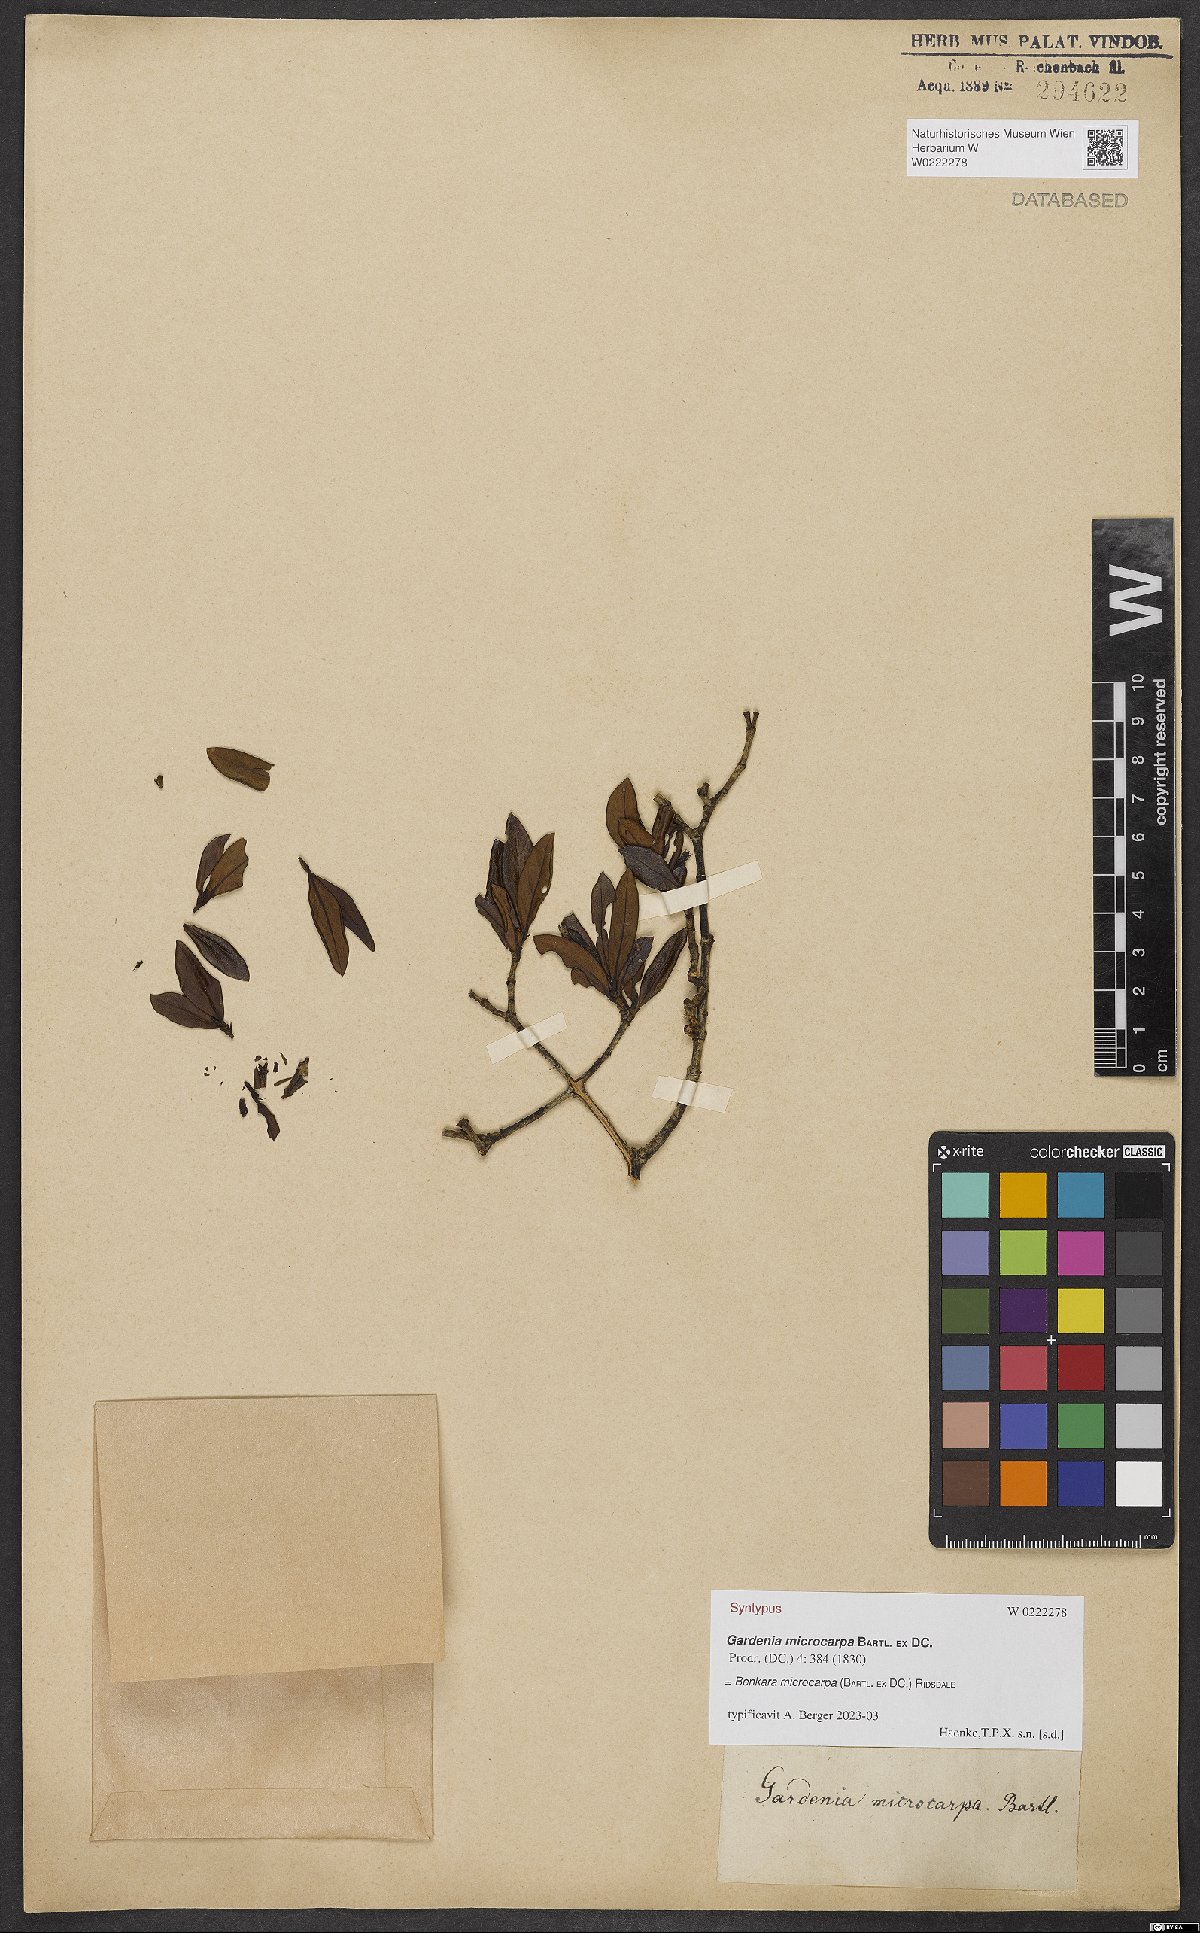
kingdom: Plantae
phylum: Tracheophyta
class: Magnoliopsida
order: Gentianales
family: Rubiaceae
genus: Benkara
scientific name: Benkara microcarpa
